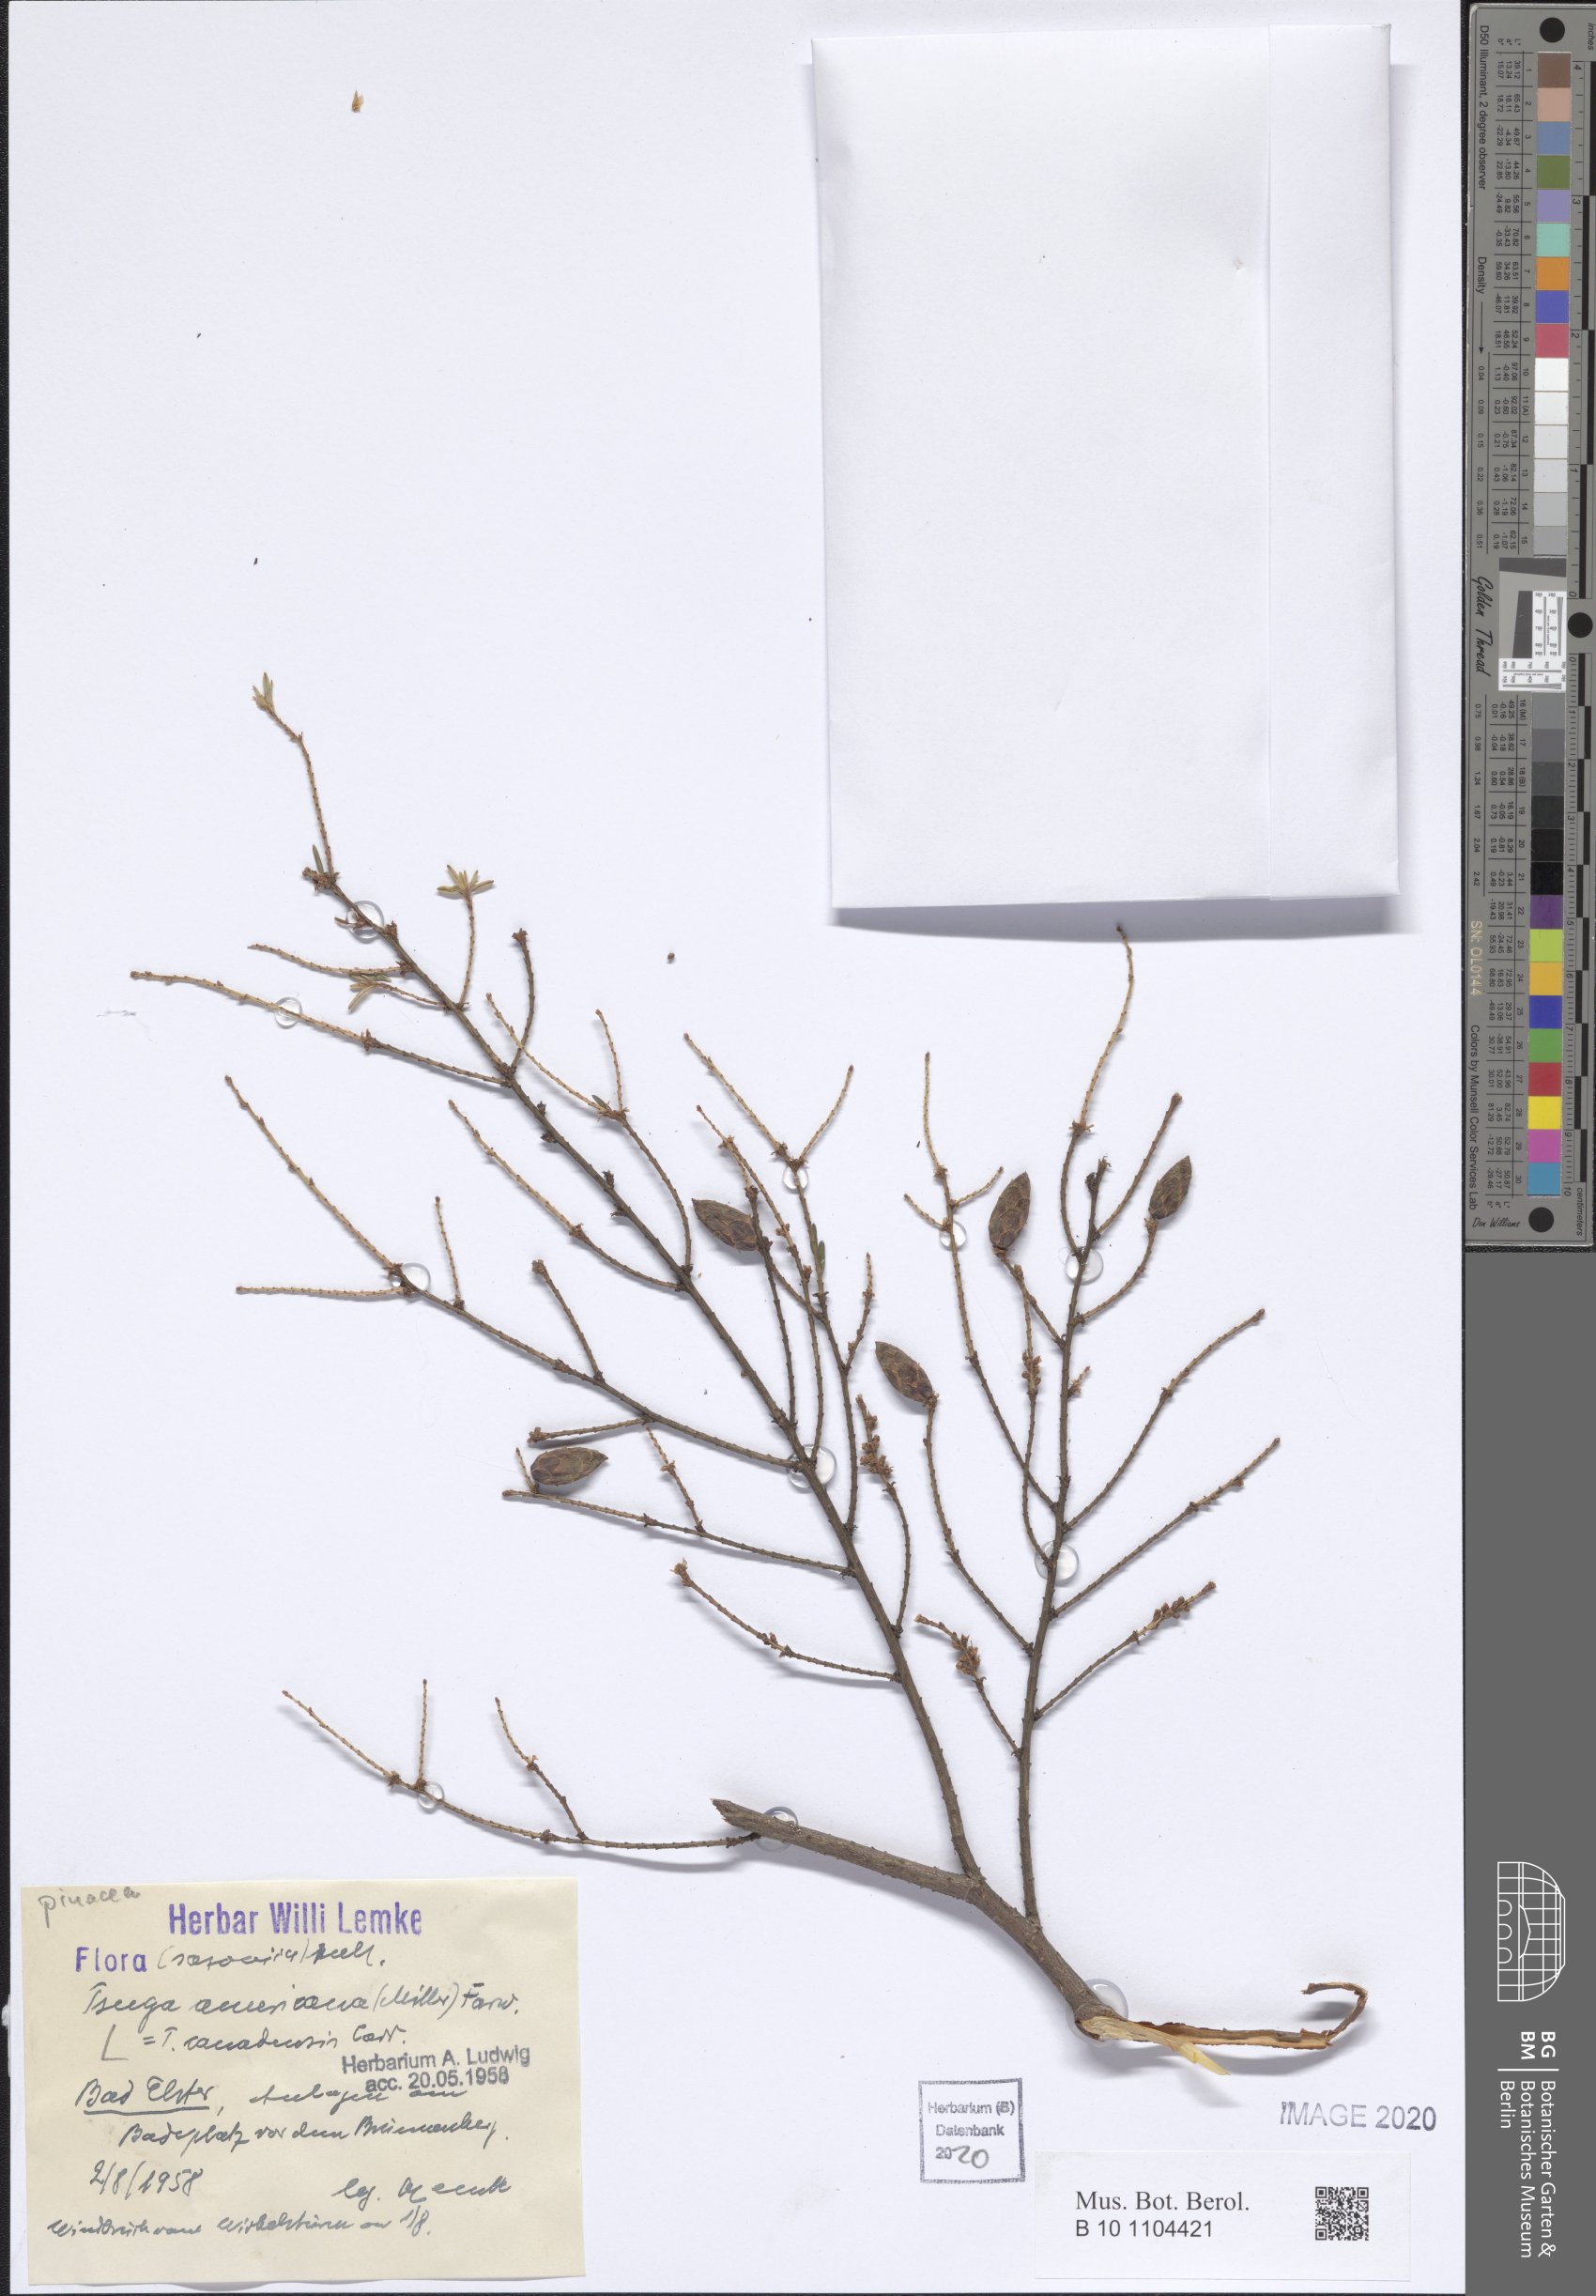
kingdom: Plantae
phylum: Tracheophyta
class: Pinopsida
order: Pinales
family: Pinaceae
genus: Tsuga
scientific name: Tsuga canadensis
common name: Eastern hemlock
